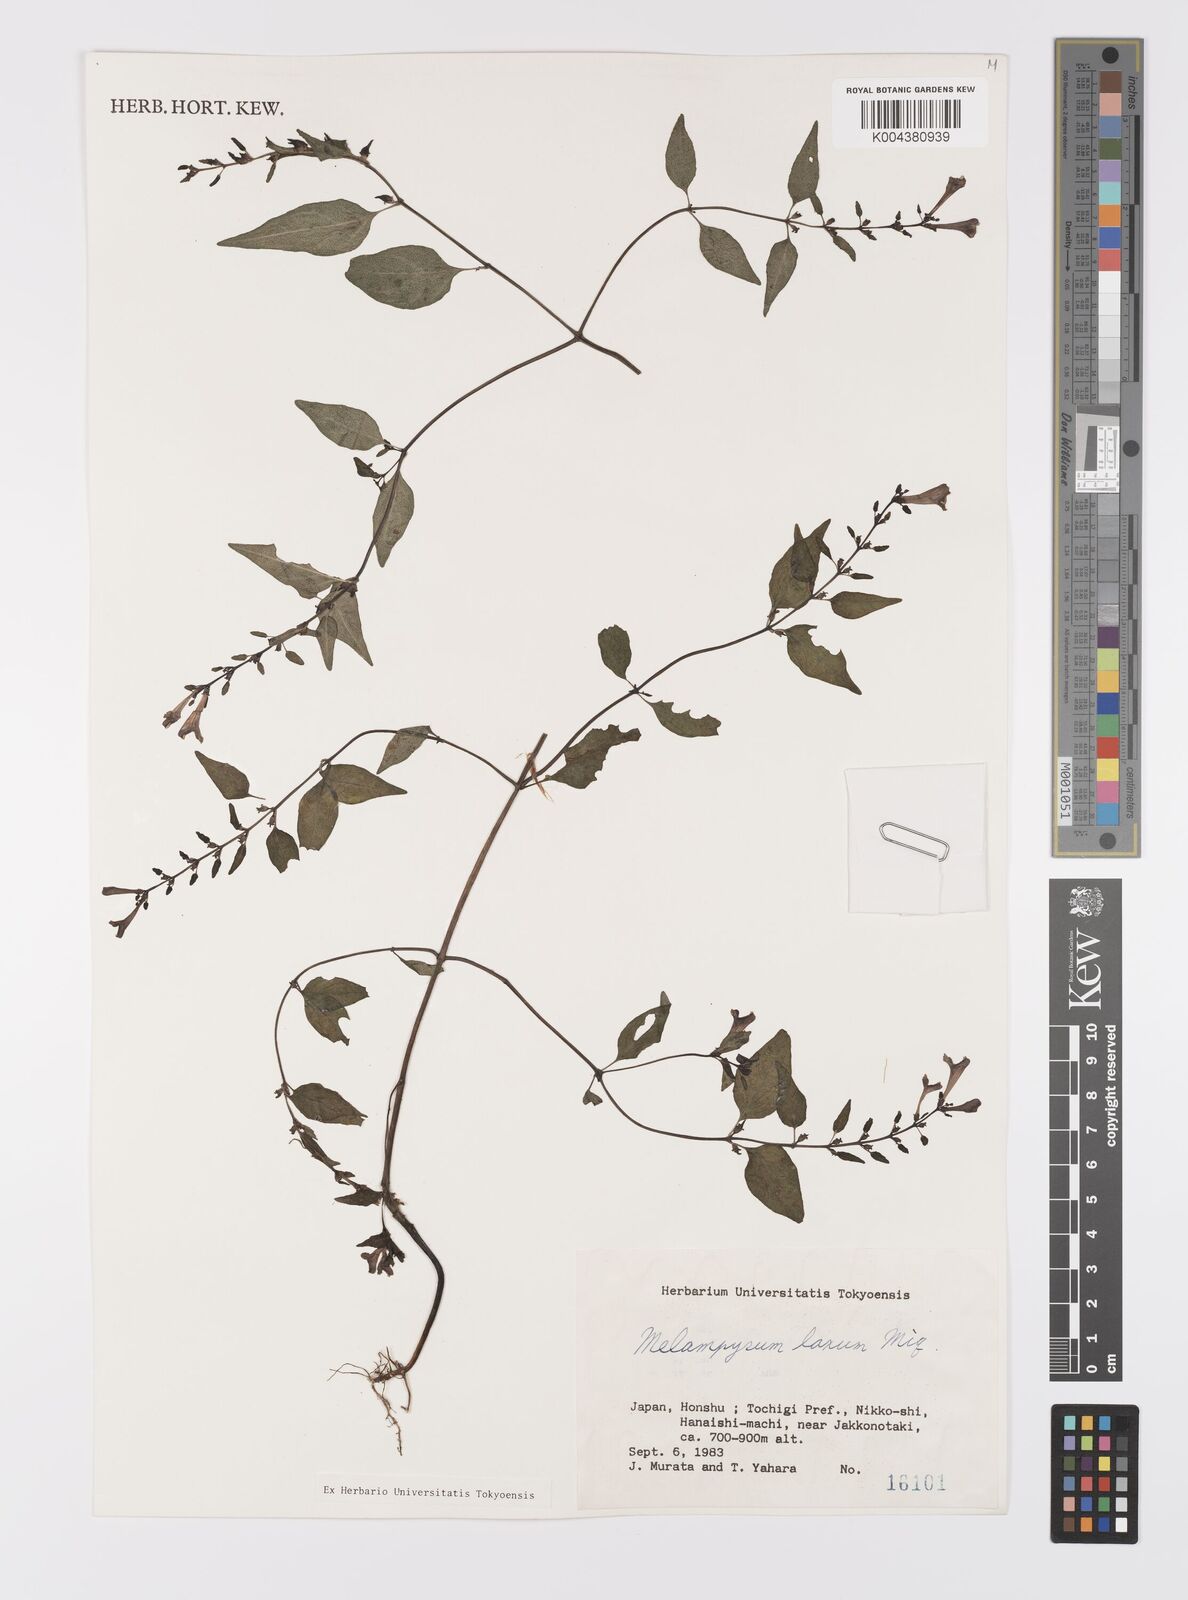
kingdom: Plantae
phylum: Tracheophyta
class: Magnoliopsida
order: Lamiales
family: Orobanchaceae
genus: Melampyrum
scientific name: Melampyrum laxum
